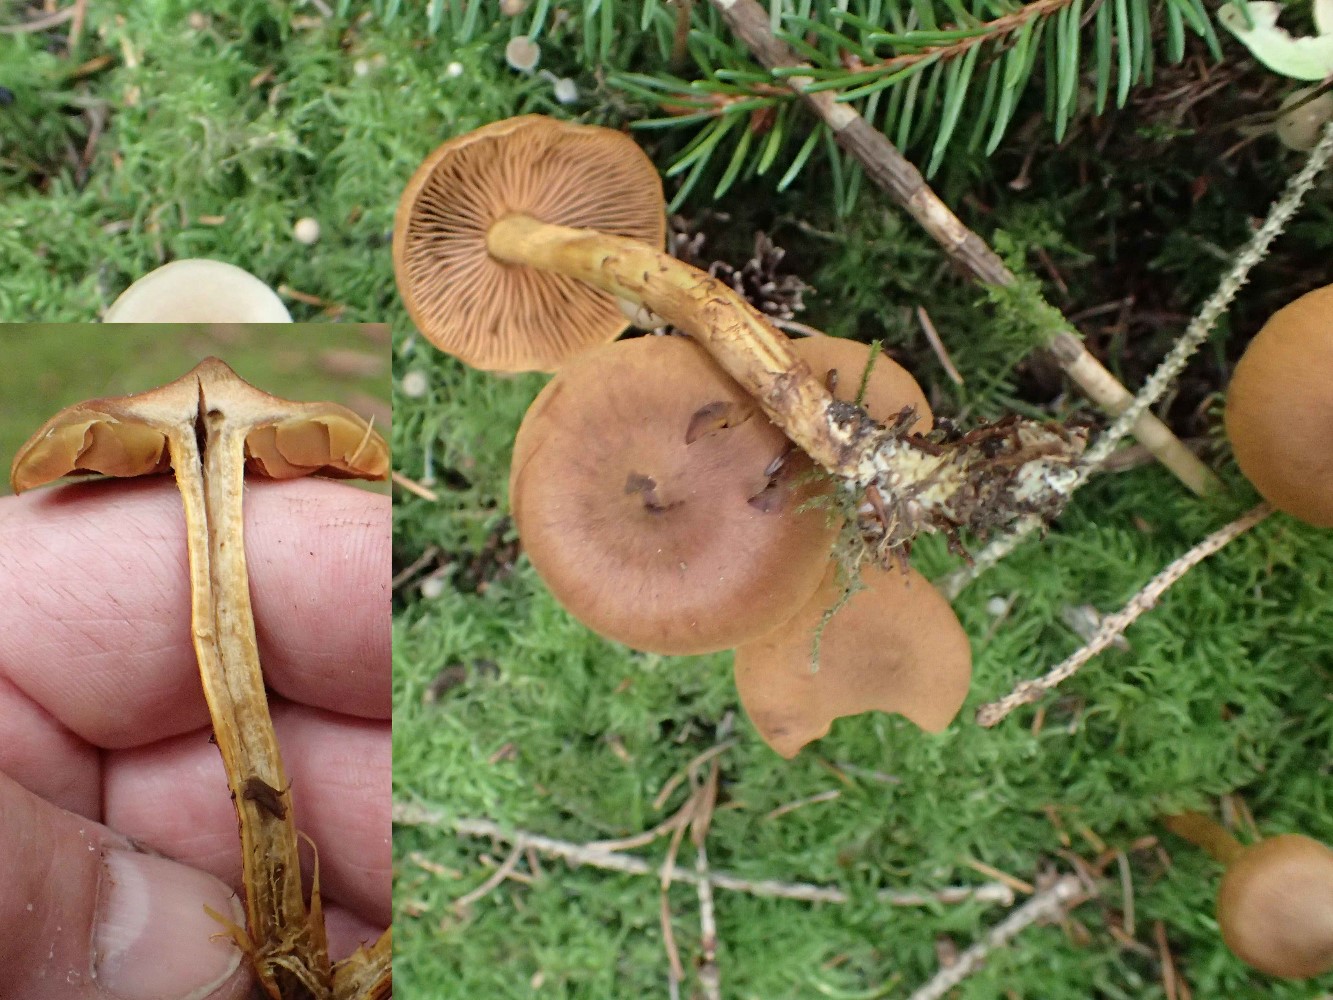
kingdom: Fungi
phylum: Basidiomycota
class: Agaricomycetes
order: Agaricales
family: Cortinariaceae
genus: Cortinarius
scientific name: Cortinarius cinnamomeus
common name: kanel-slørhat
